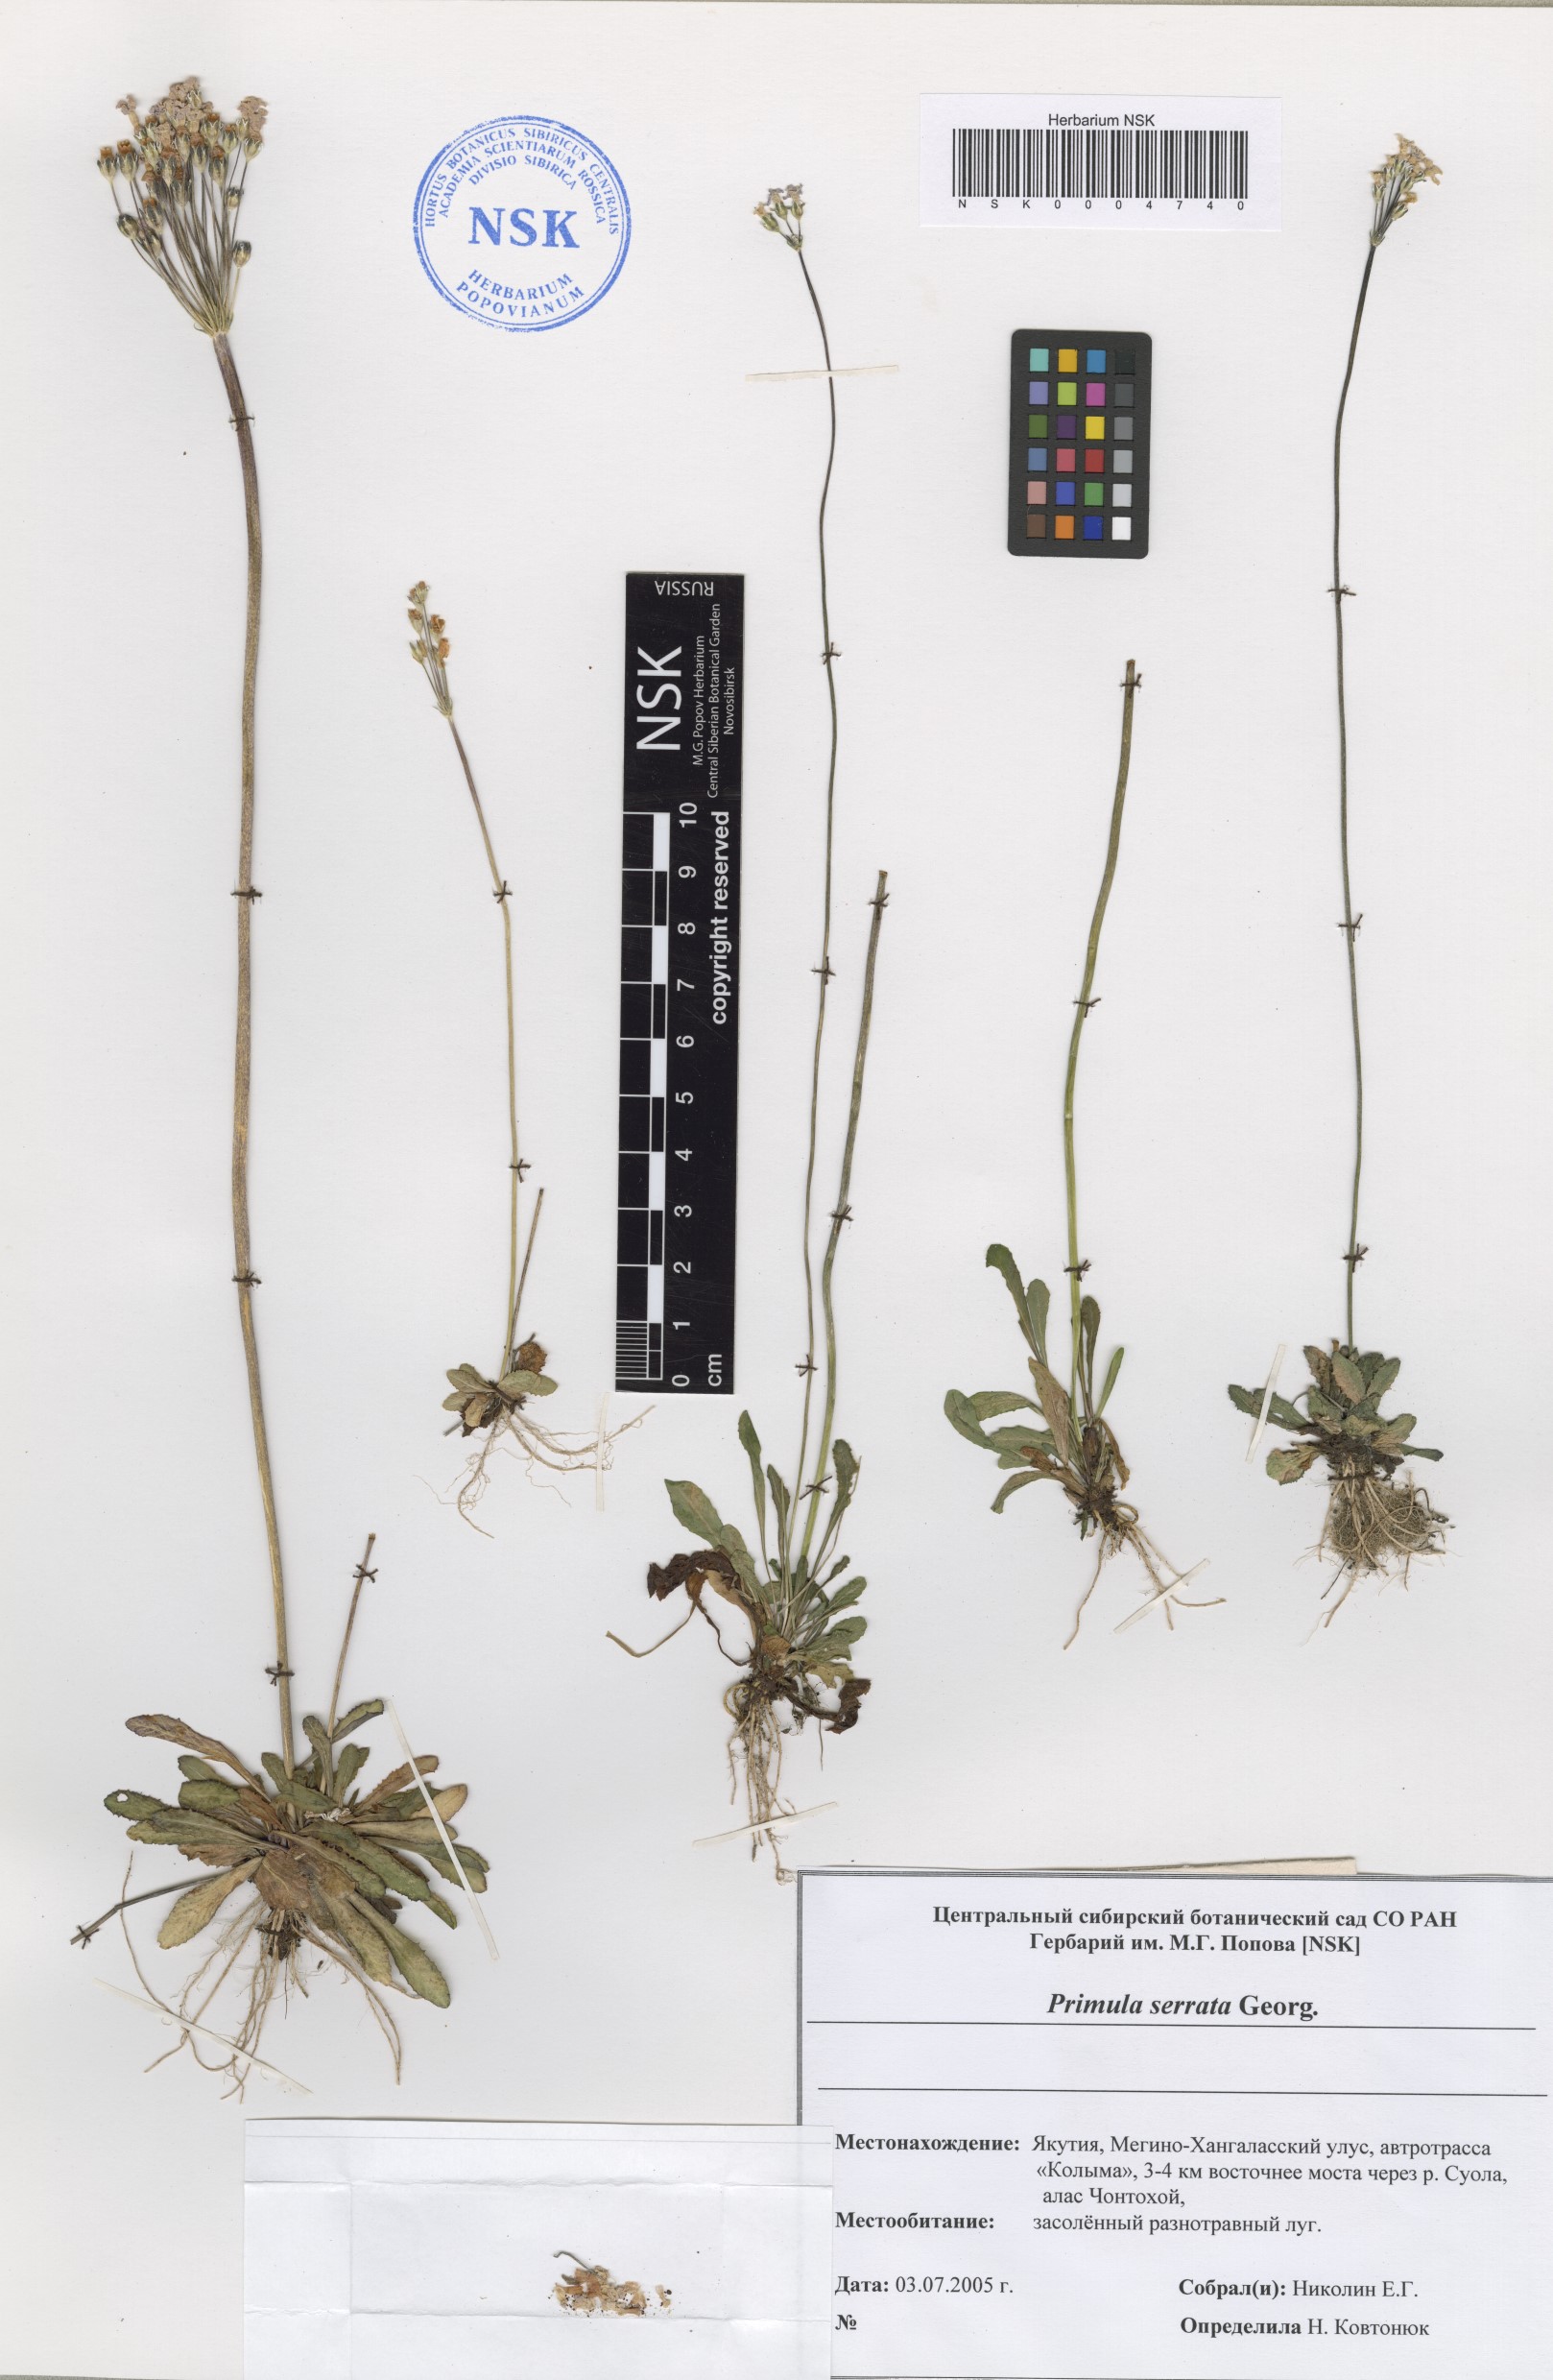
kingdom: Plantae
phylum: Tracheophyta
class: Magnoliopsida
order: Ericales
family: Primulaceae
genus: Primula
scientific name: Primula serrata
